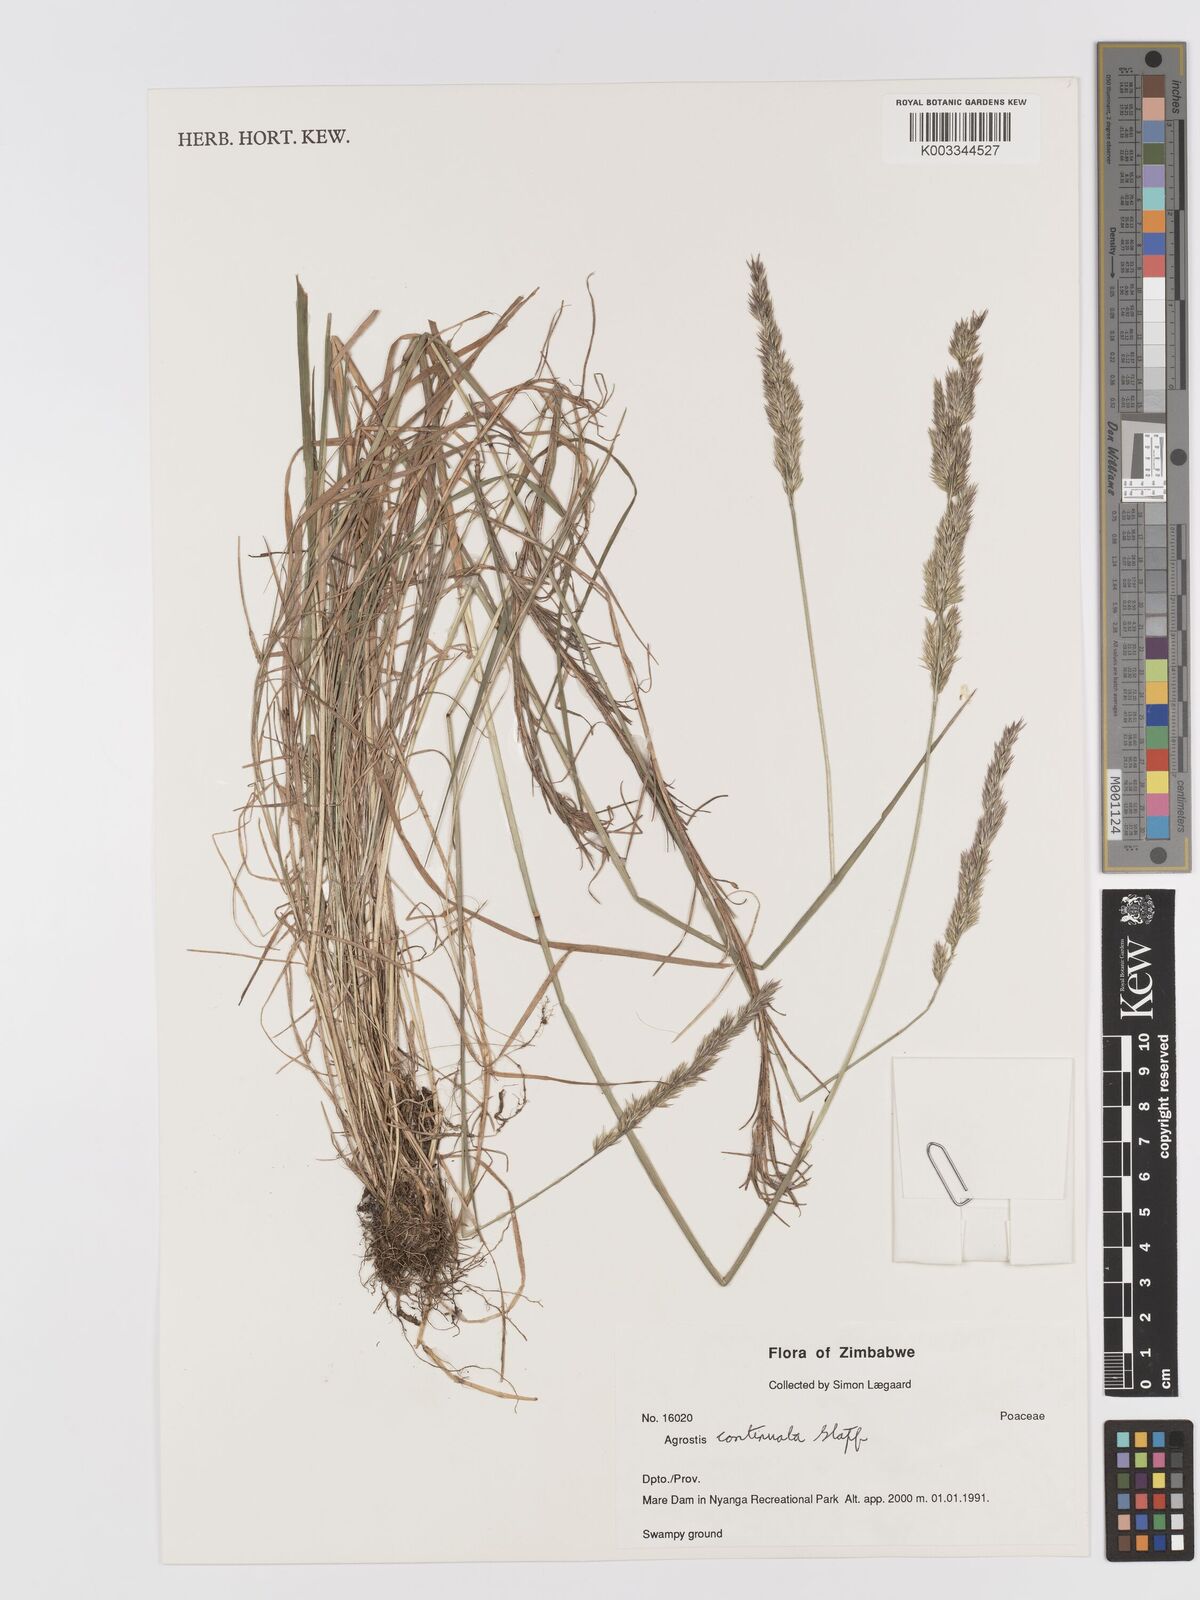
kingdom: Plantae
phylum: Tracheophyta
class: Liliopsida
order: Poales
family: Poaceae
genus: Agrostis
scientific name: Agrostis continuata
